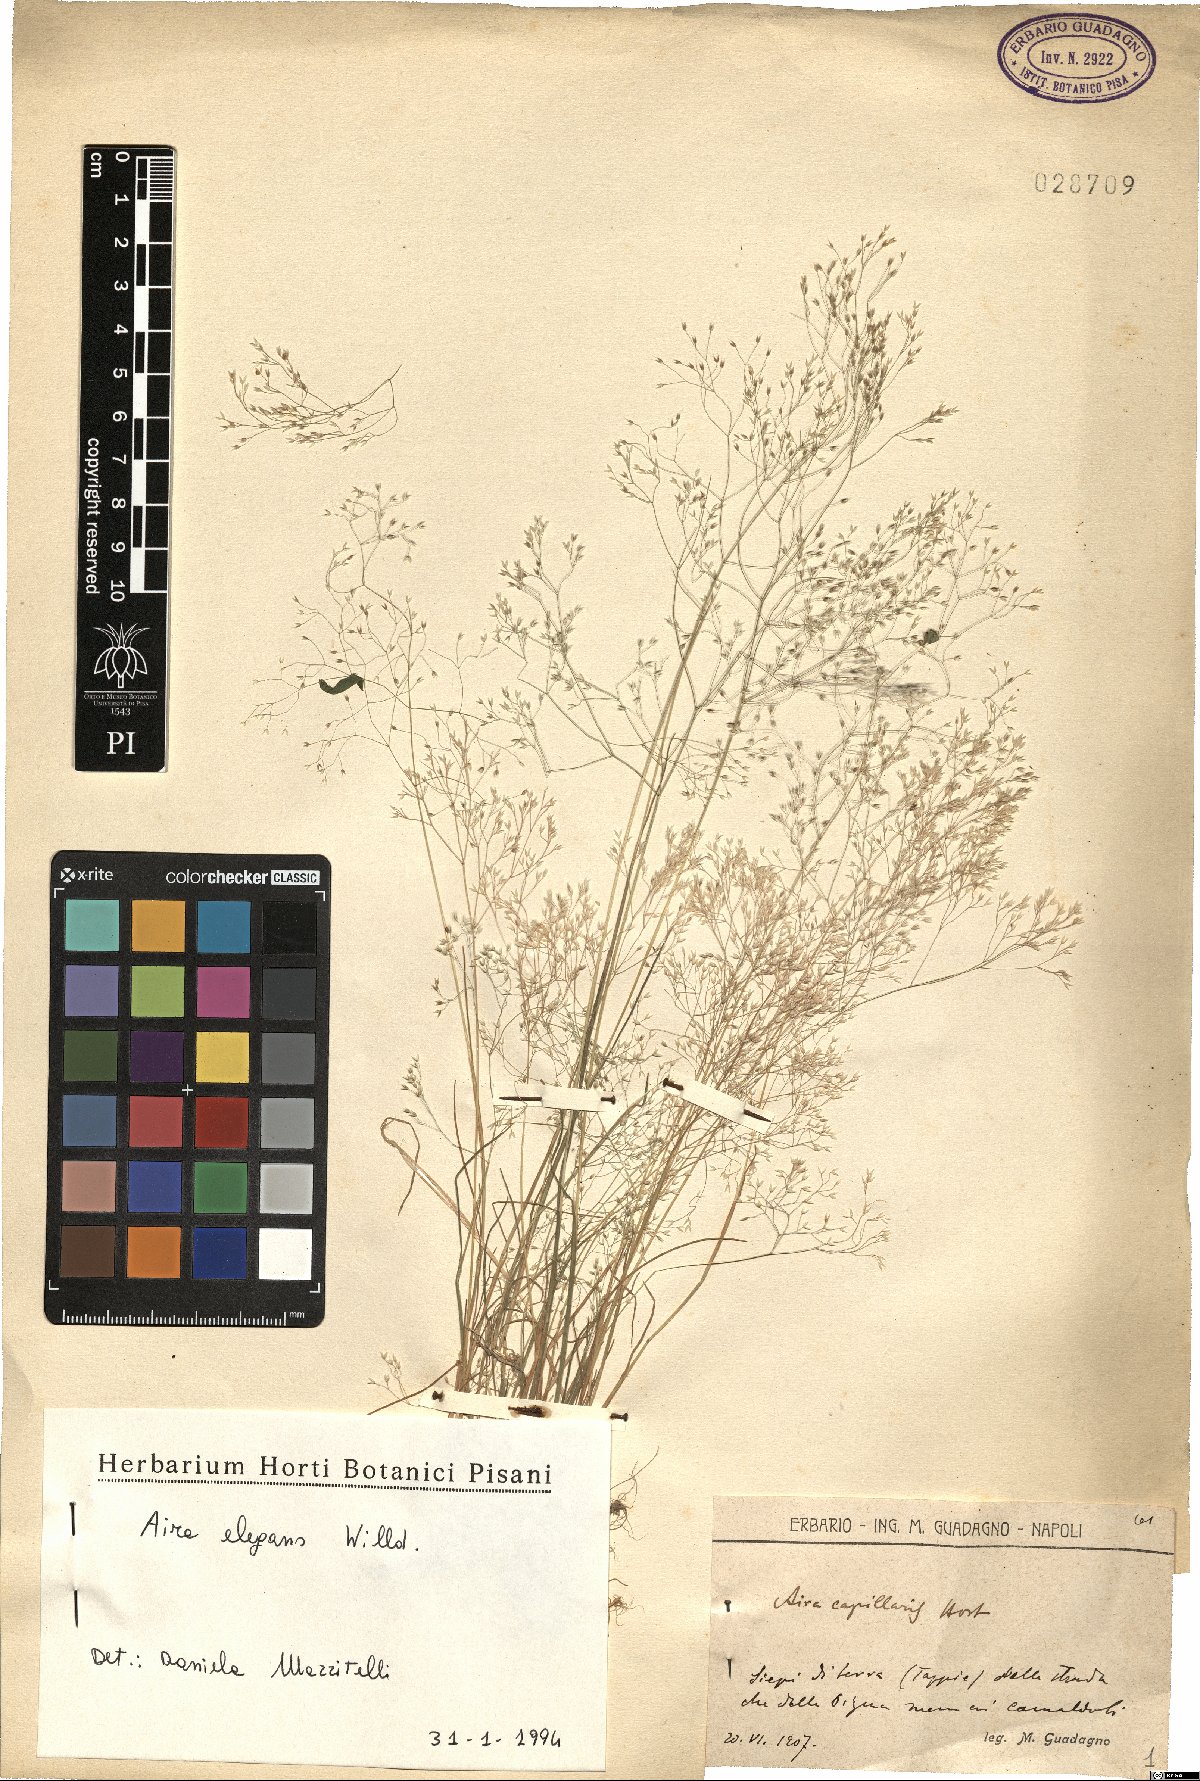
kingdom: Plantae
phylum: Tracheophyta
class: Liliopsida
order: Poales
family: Poaceae
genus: Aira
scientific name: Aira elegans
